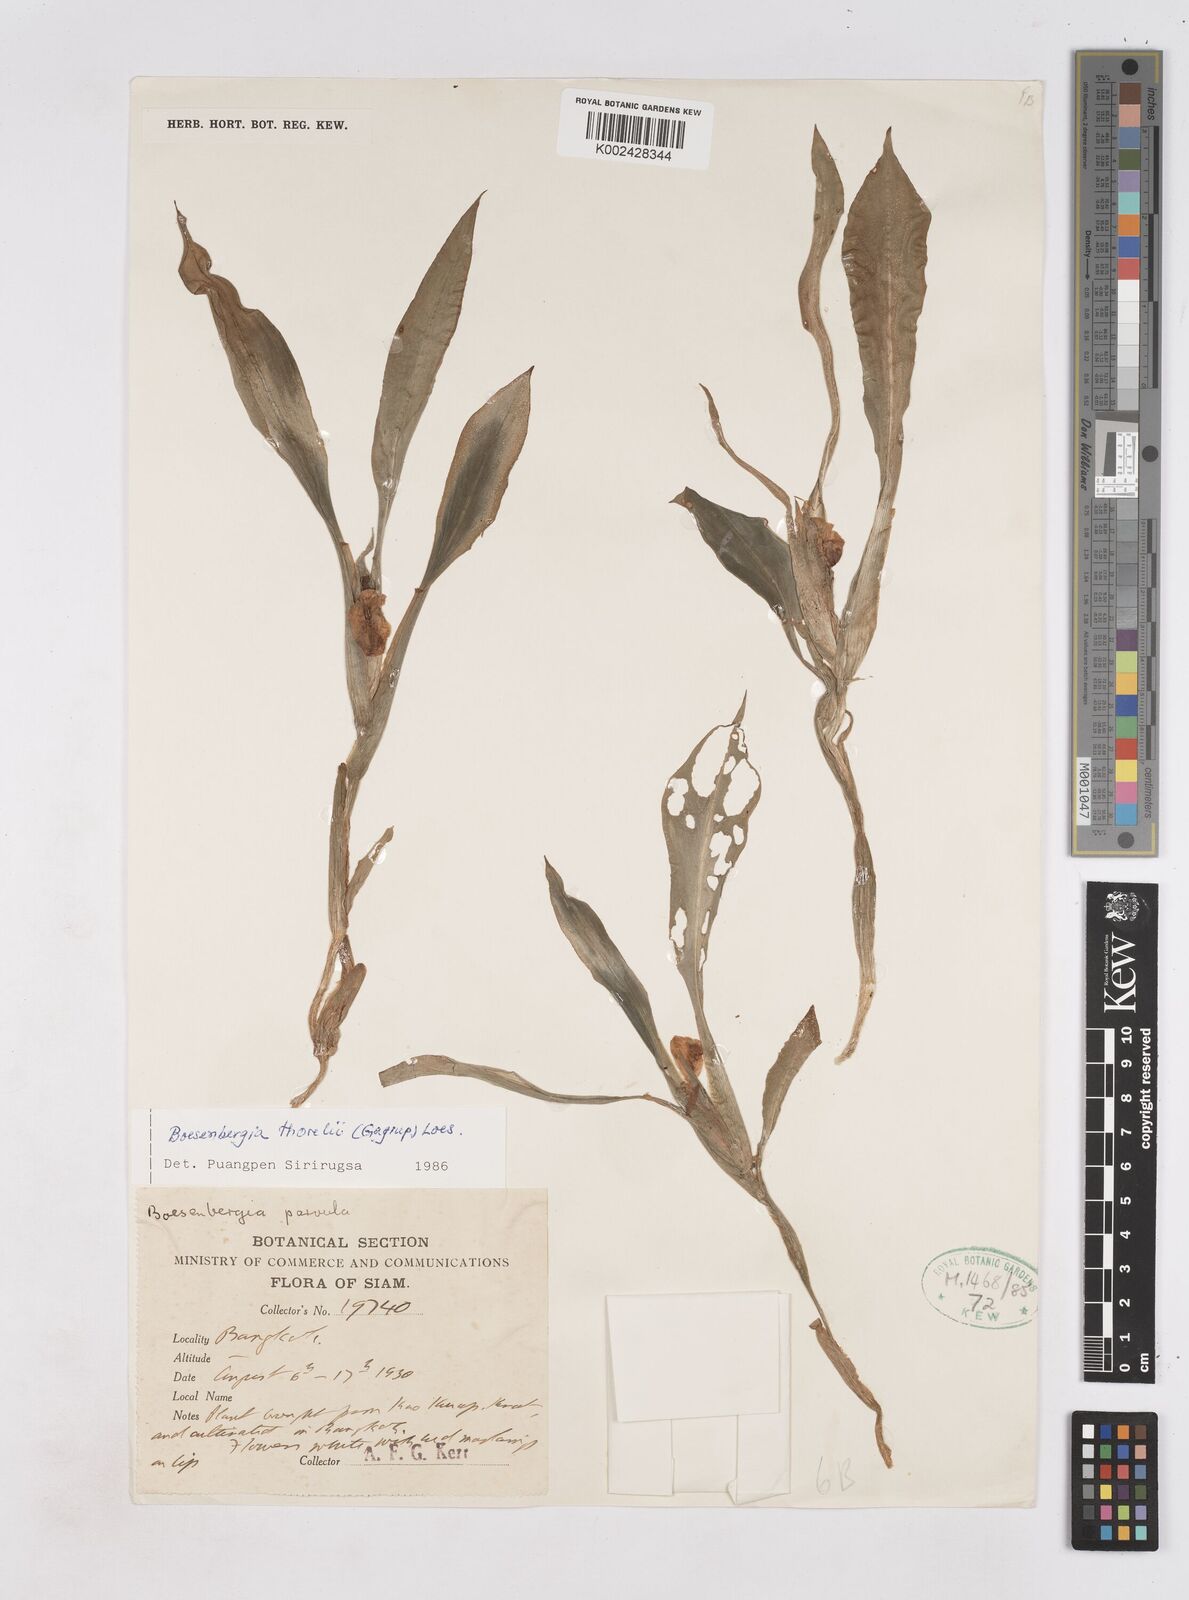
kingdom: Plantae
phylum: Tracheophyta
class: Liliopsida
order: Zingiberales
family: Zingiberaceae
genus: Boesenbergia
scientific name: Boesenbergia thorelii
